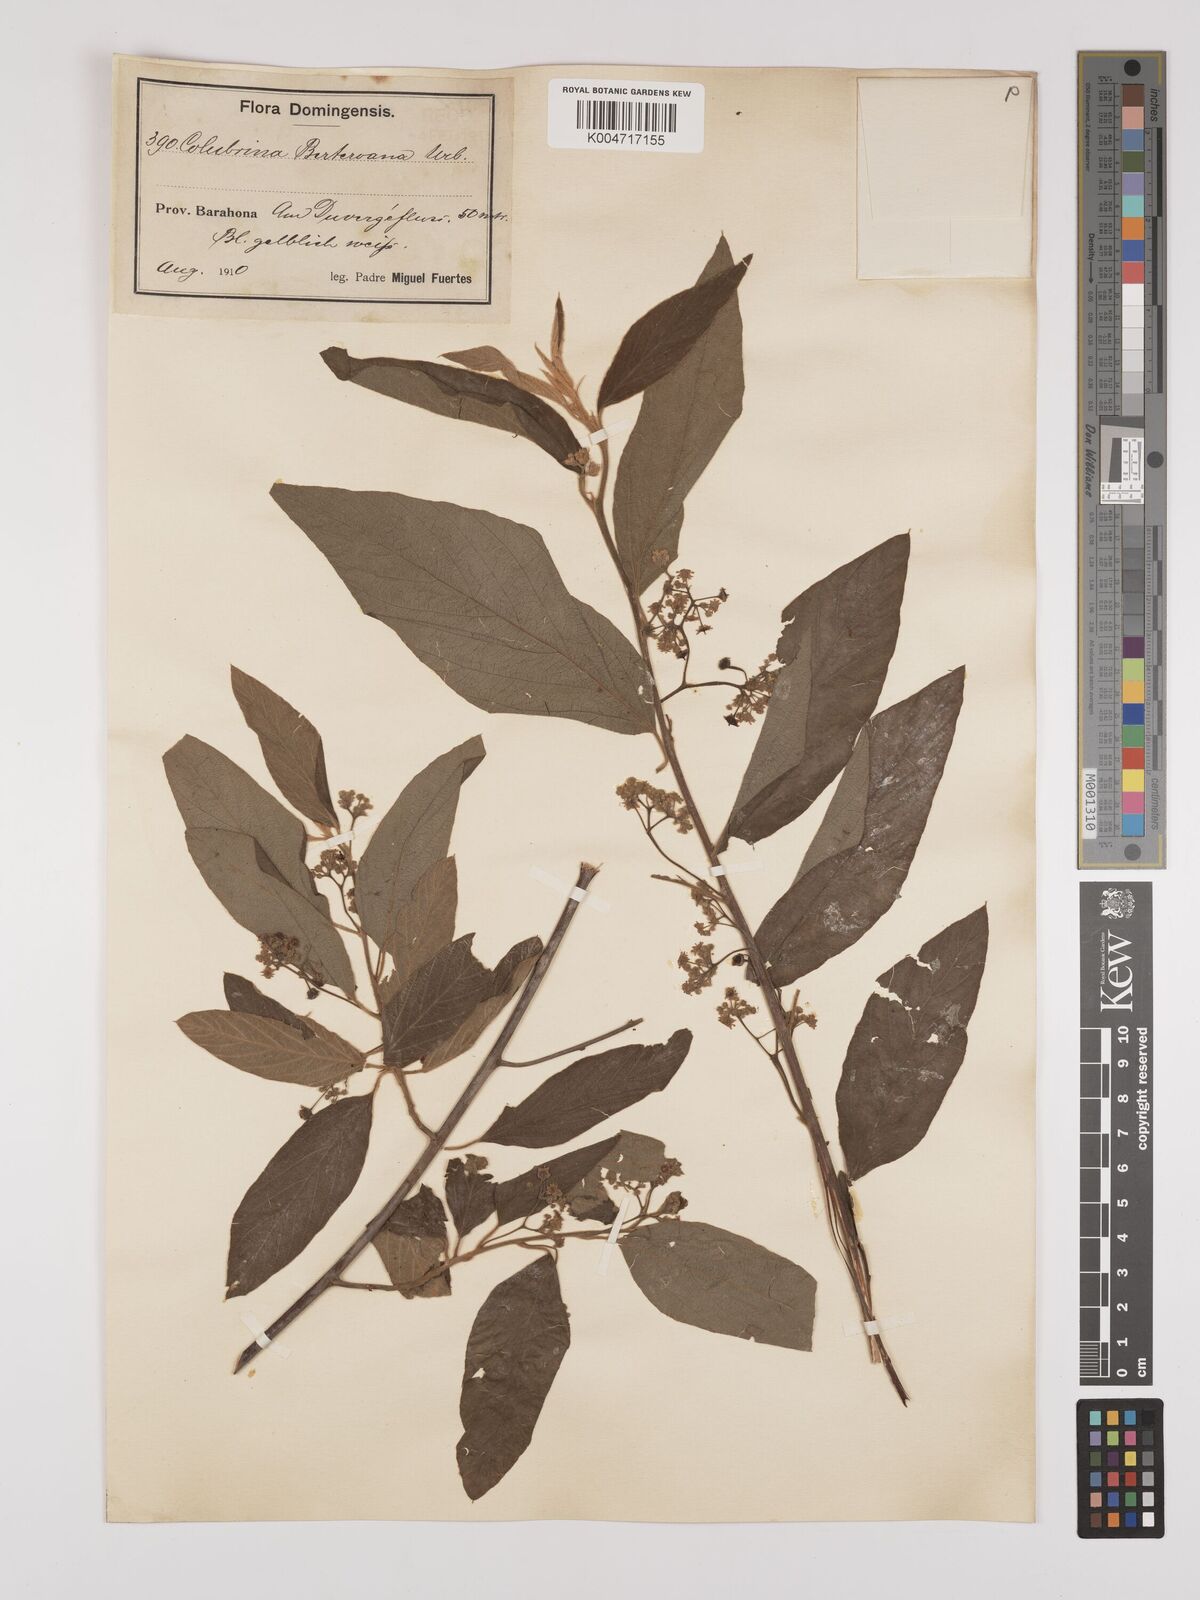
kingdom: Plantae
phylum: Tracheophyta
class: Magnoliopsida
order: Rosales
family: Rhamnaceae
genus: Colubrina
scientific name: Colubrina berteroana
